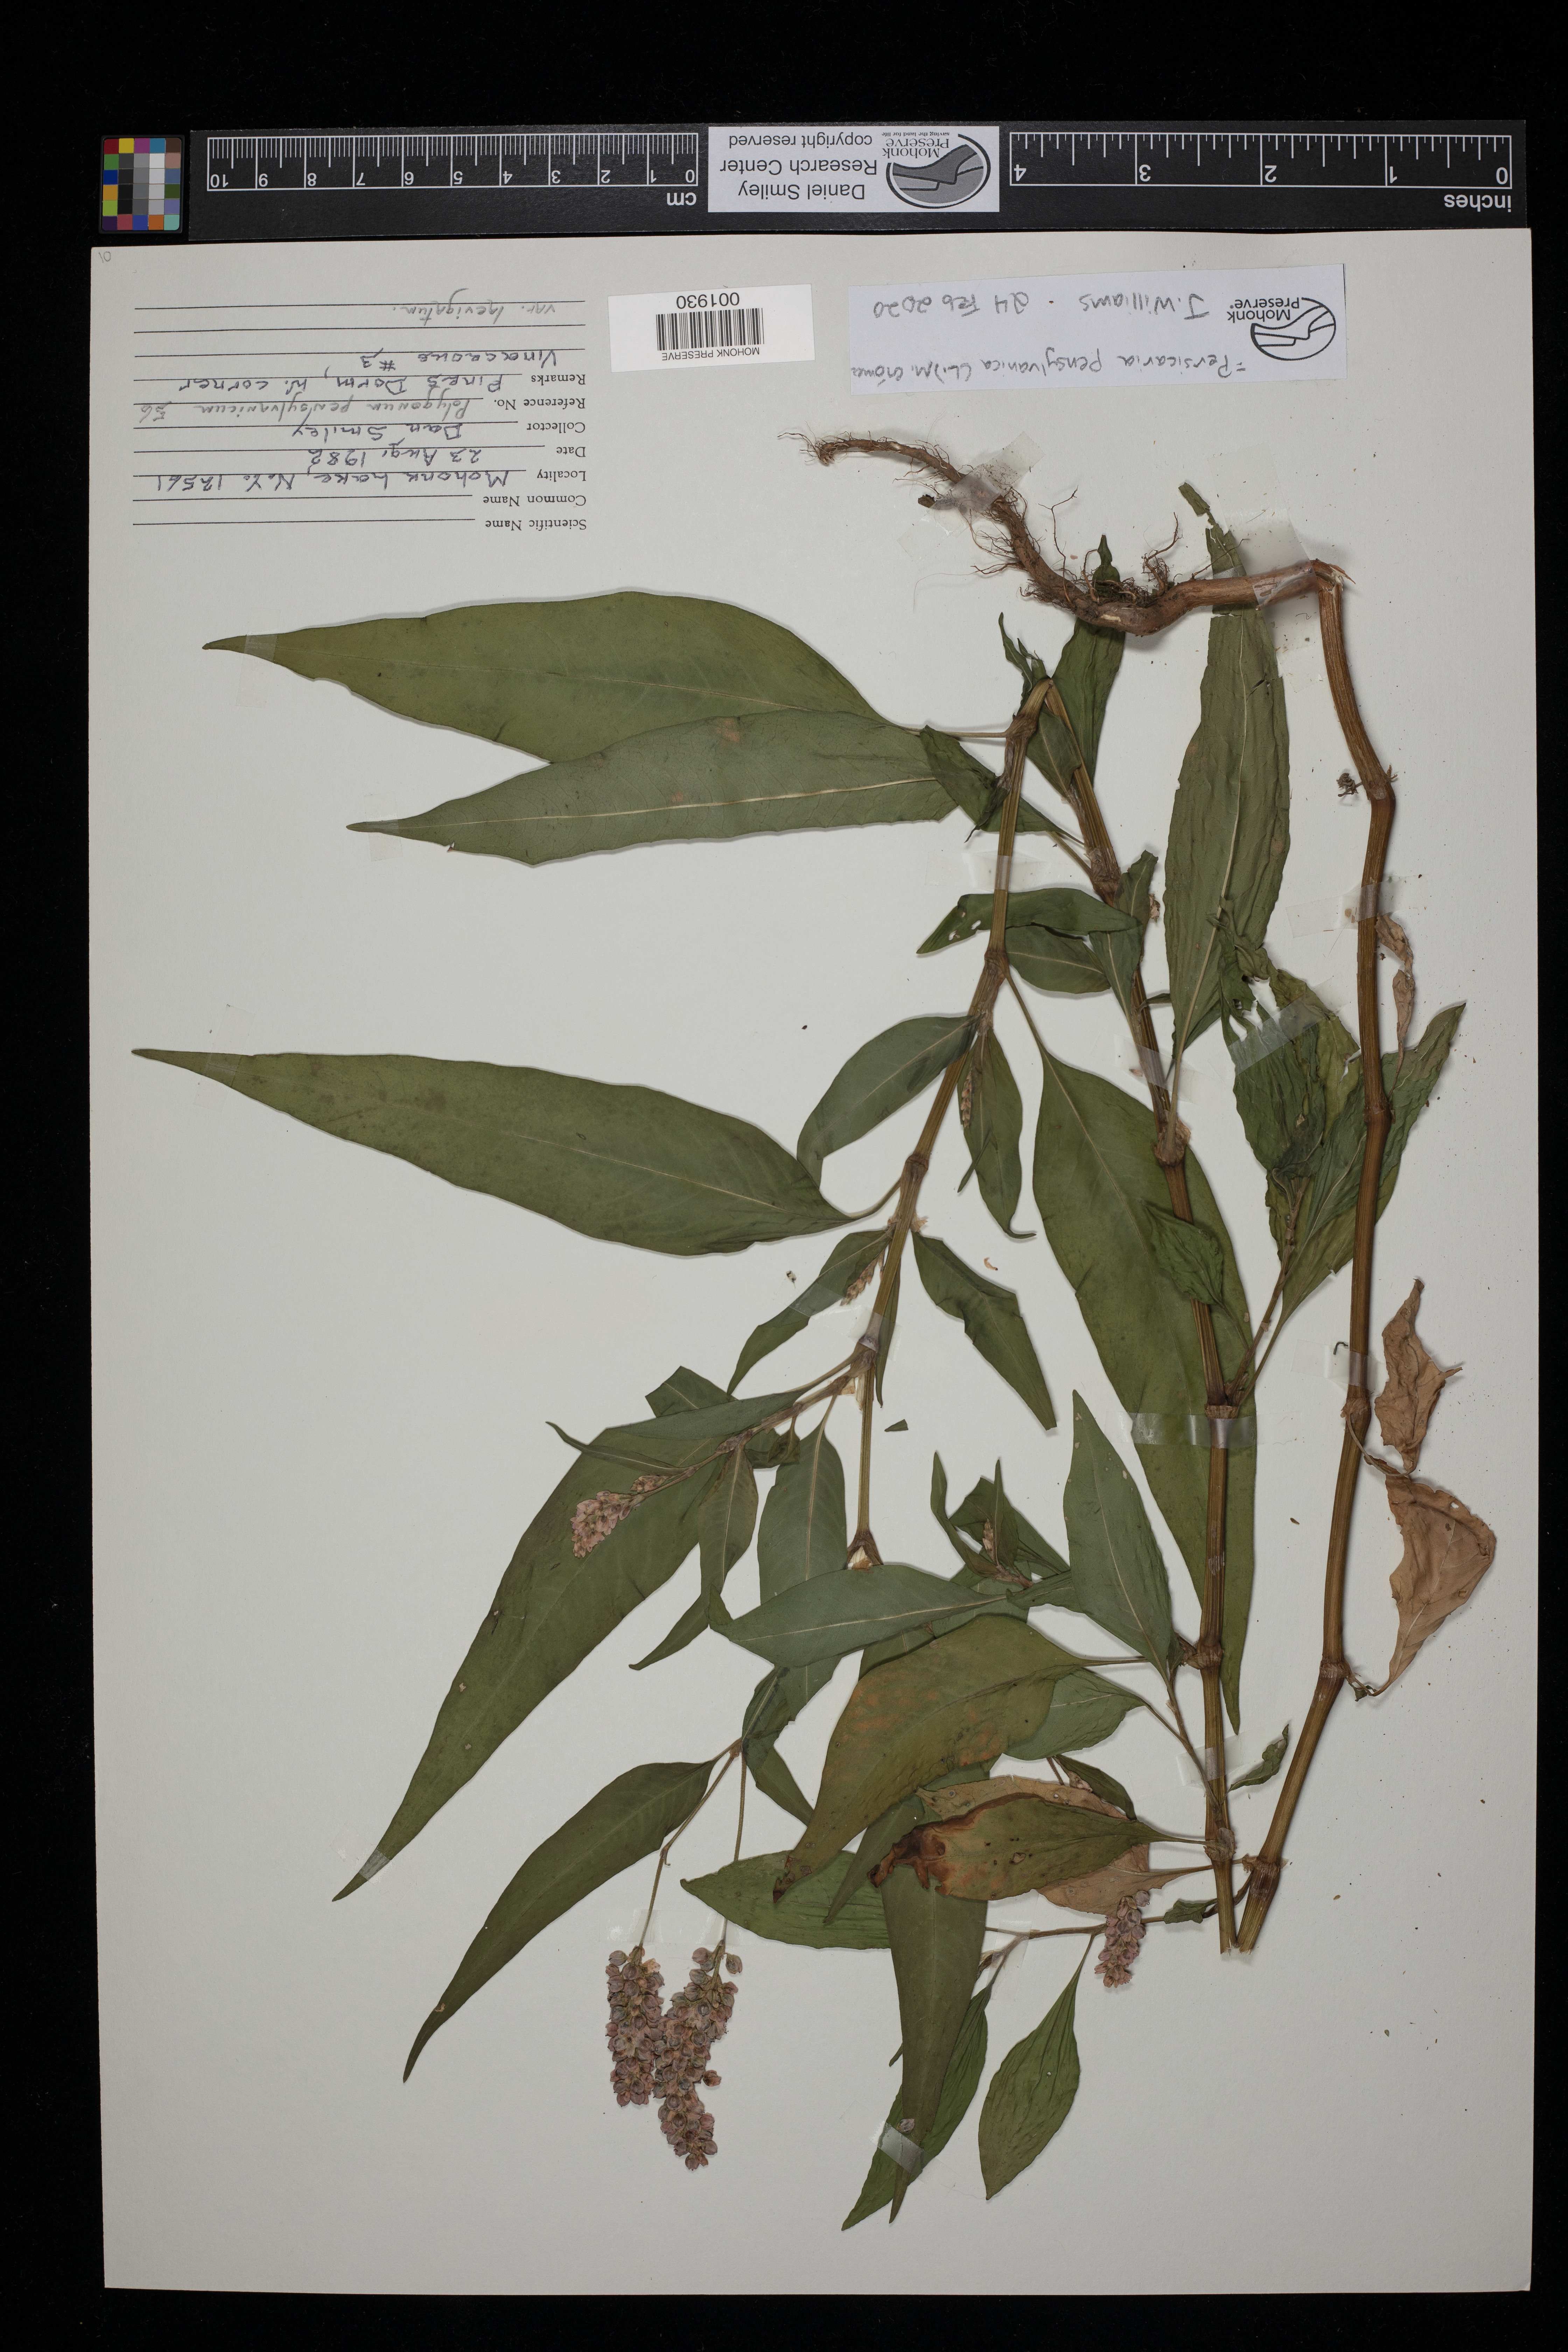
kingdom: Plantae
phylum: Tracheophyta
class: Magnoliopsida
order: Caryophyllales
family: Polygonaceae
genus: Persicaria
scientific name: Persicaria pensylvanica
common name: Pinkweed
